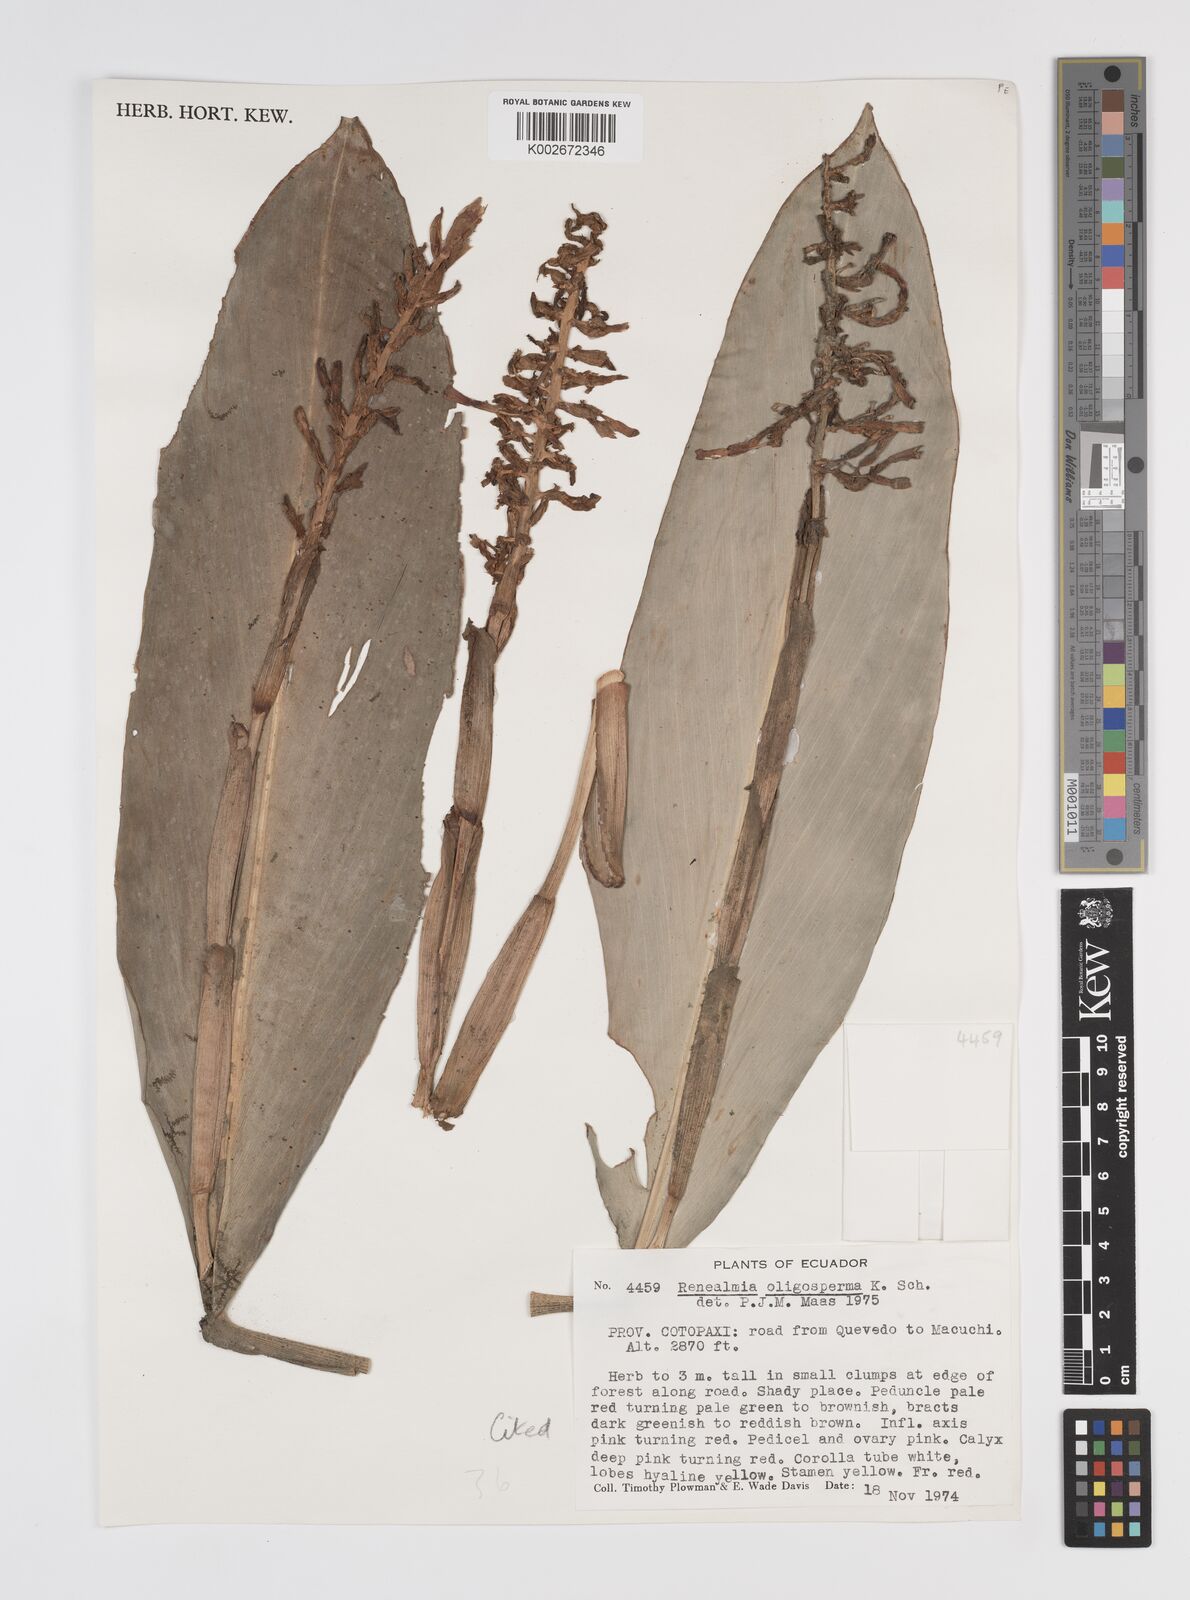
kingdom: Plantae
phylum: Tracheophyta
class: Liliopsida
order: Zingiberales
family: Zingiberaceae
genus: Renealmia
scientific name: Renealmia oligosperma
